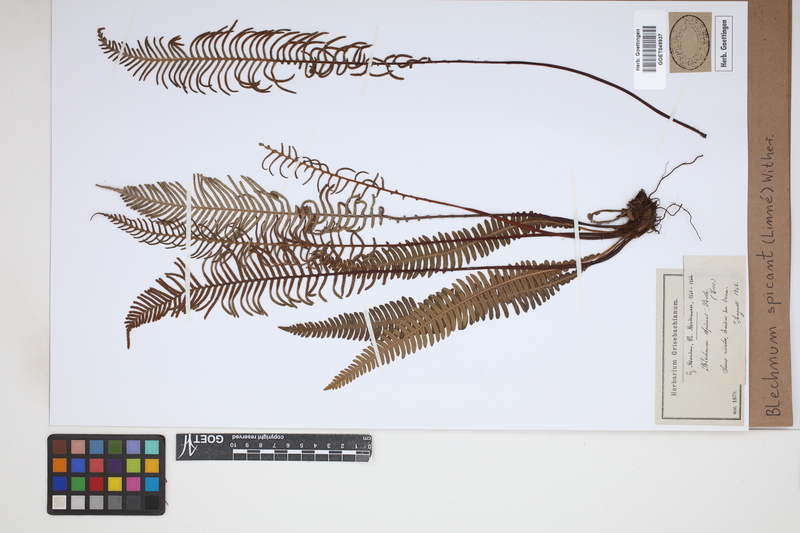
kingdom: Plantae
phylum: Tracheophyta
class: Polypodiopsida
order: Polypodiales
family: Blechnaceae
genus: Struthiopteris
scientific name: Struthiopteris spicant
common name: Deer fern
